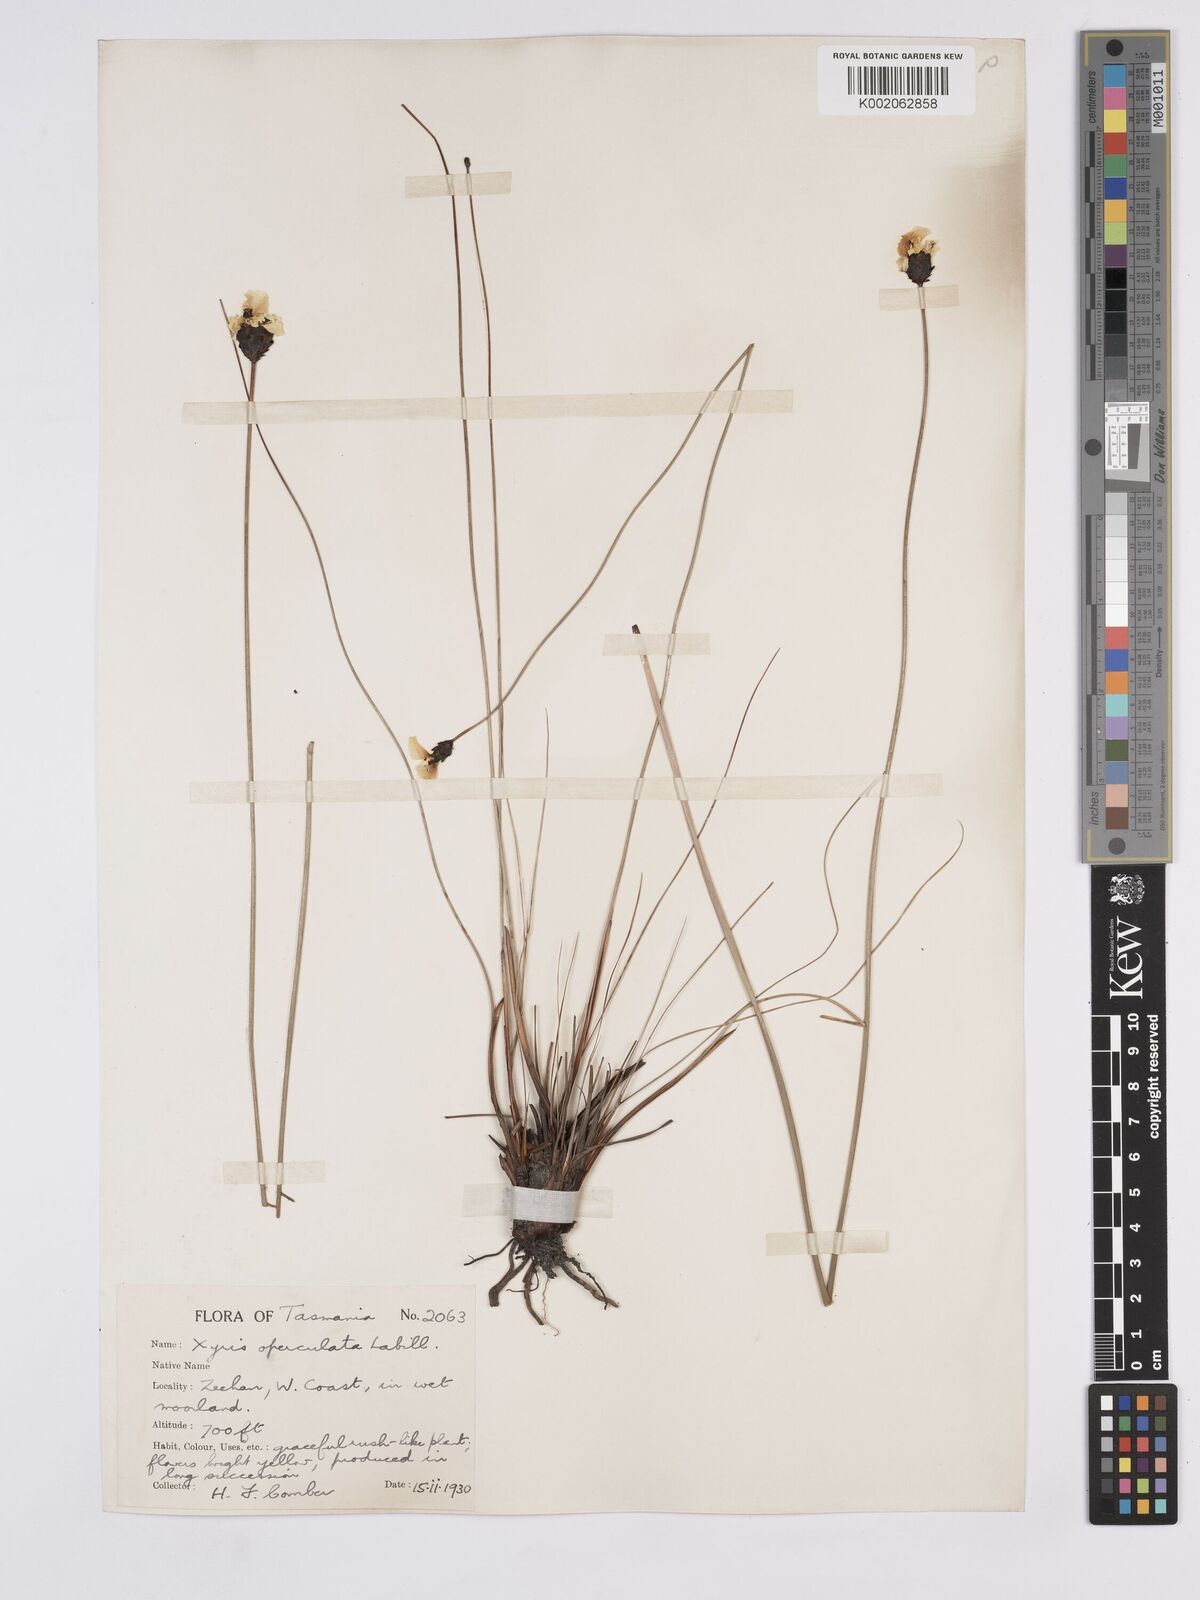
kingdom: Plantae
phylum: Tracheophyta
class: Liliopsida
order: Poales
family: Xyridaceae
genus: Xyris
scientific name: Xyris operculata
